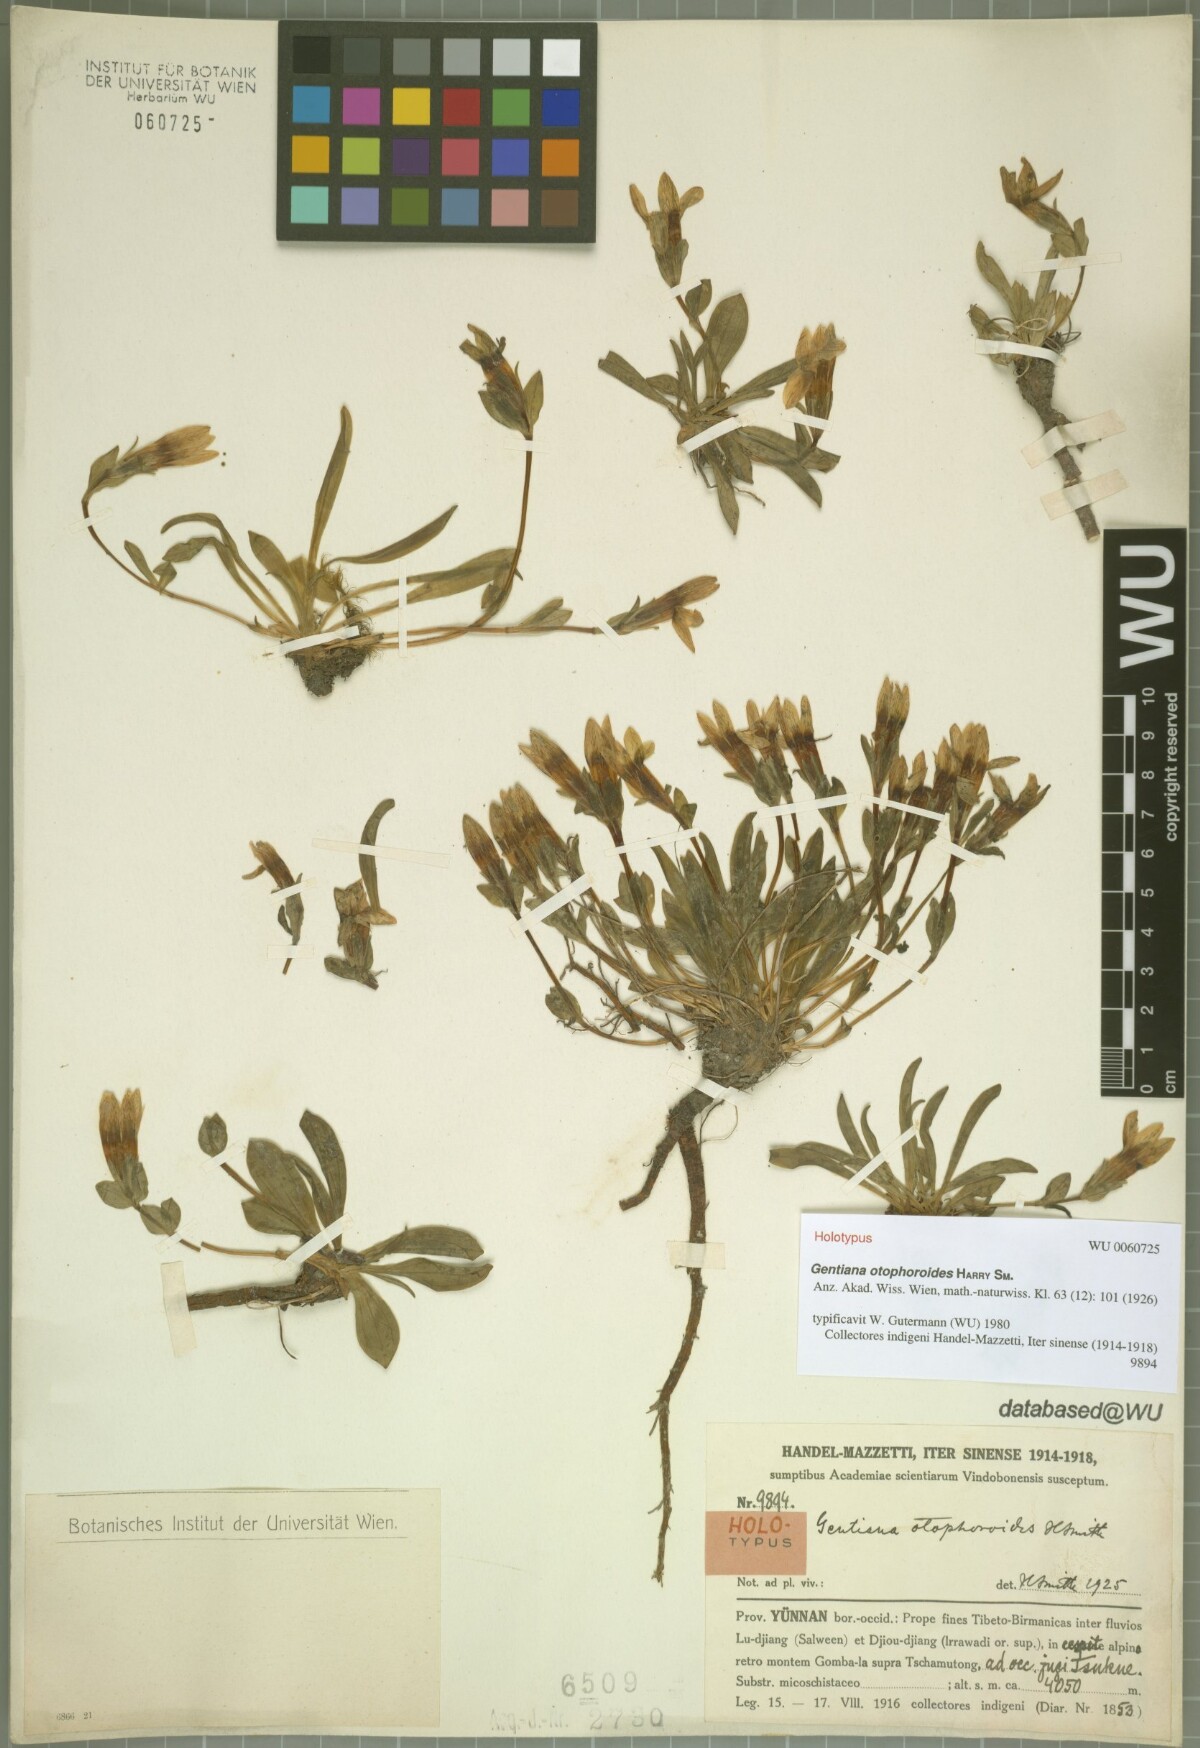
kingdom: Plantae
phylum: Tracheophyta
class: Magnoliopsida
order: Gentianales
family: Gentianaceae
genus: Kuepferia
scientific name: Kuepferia otophoroides
